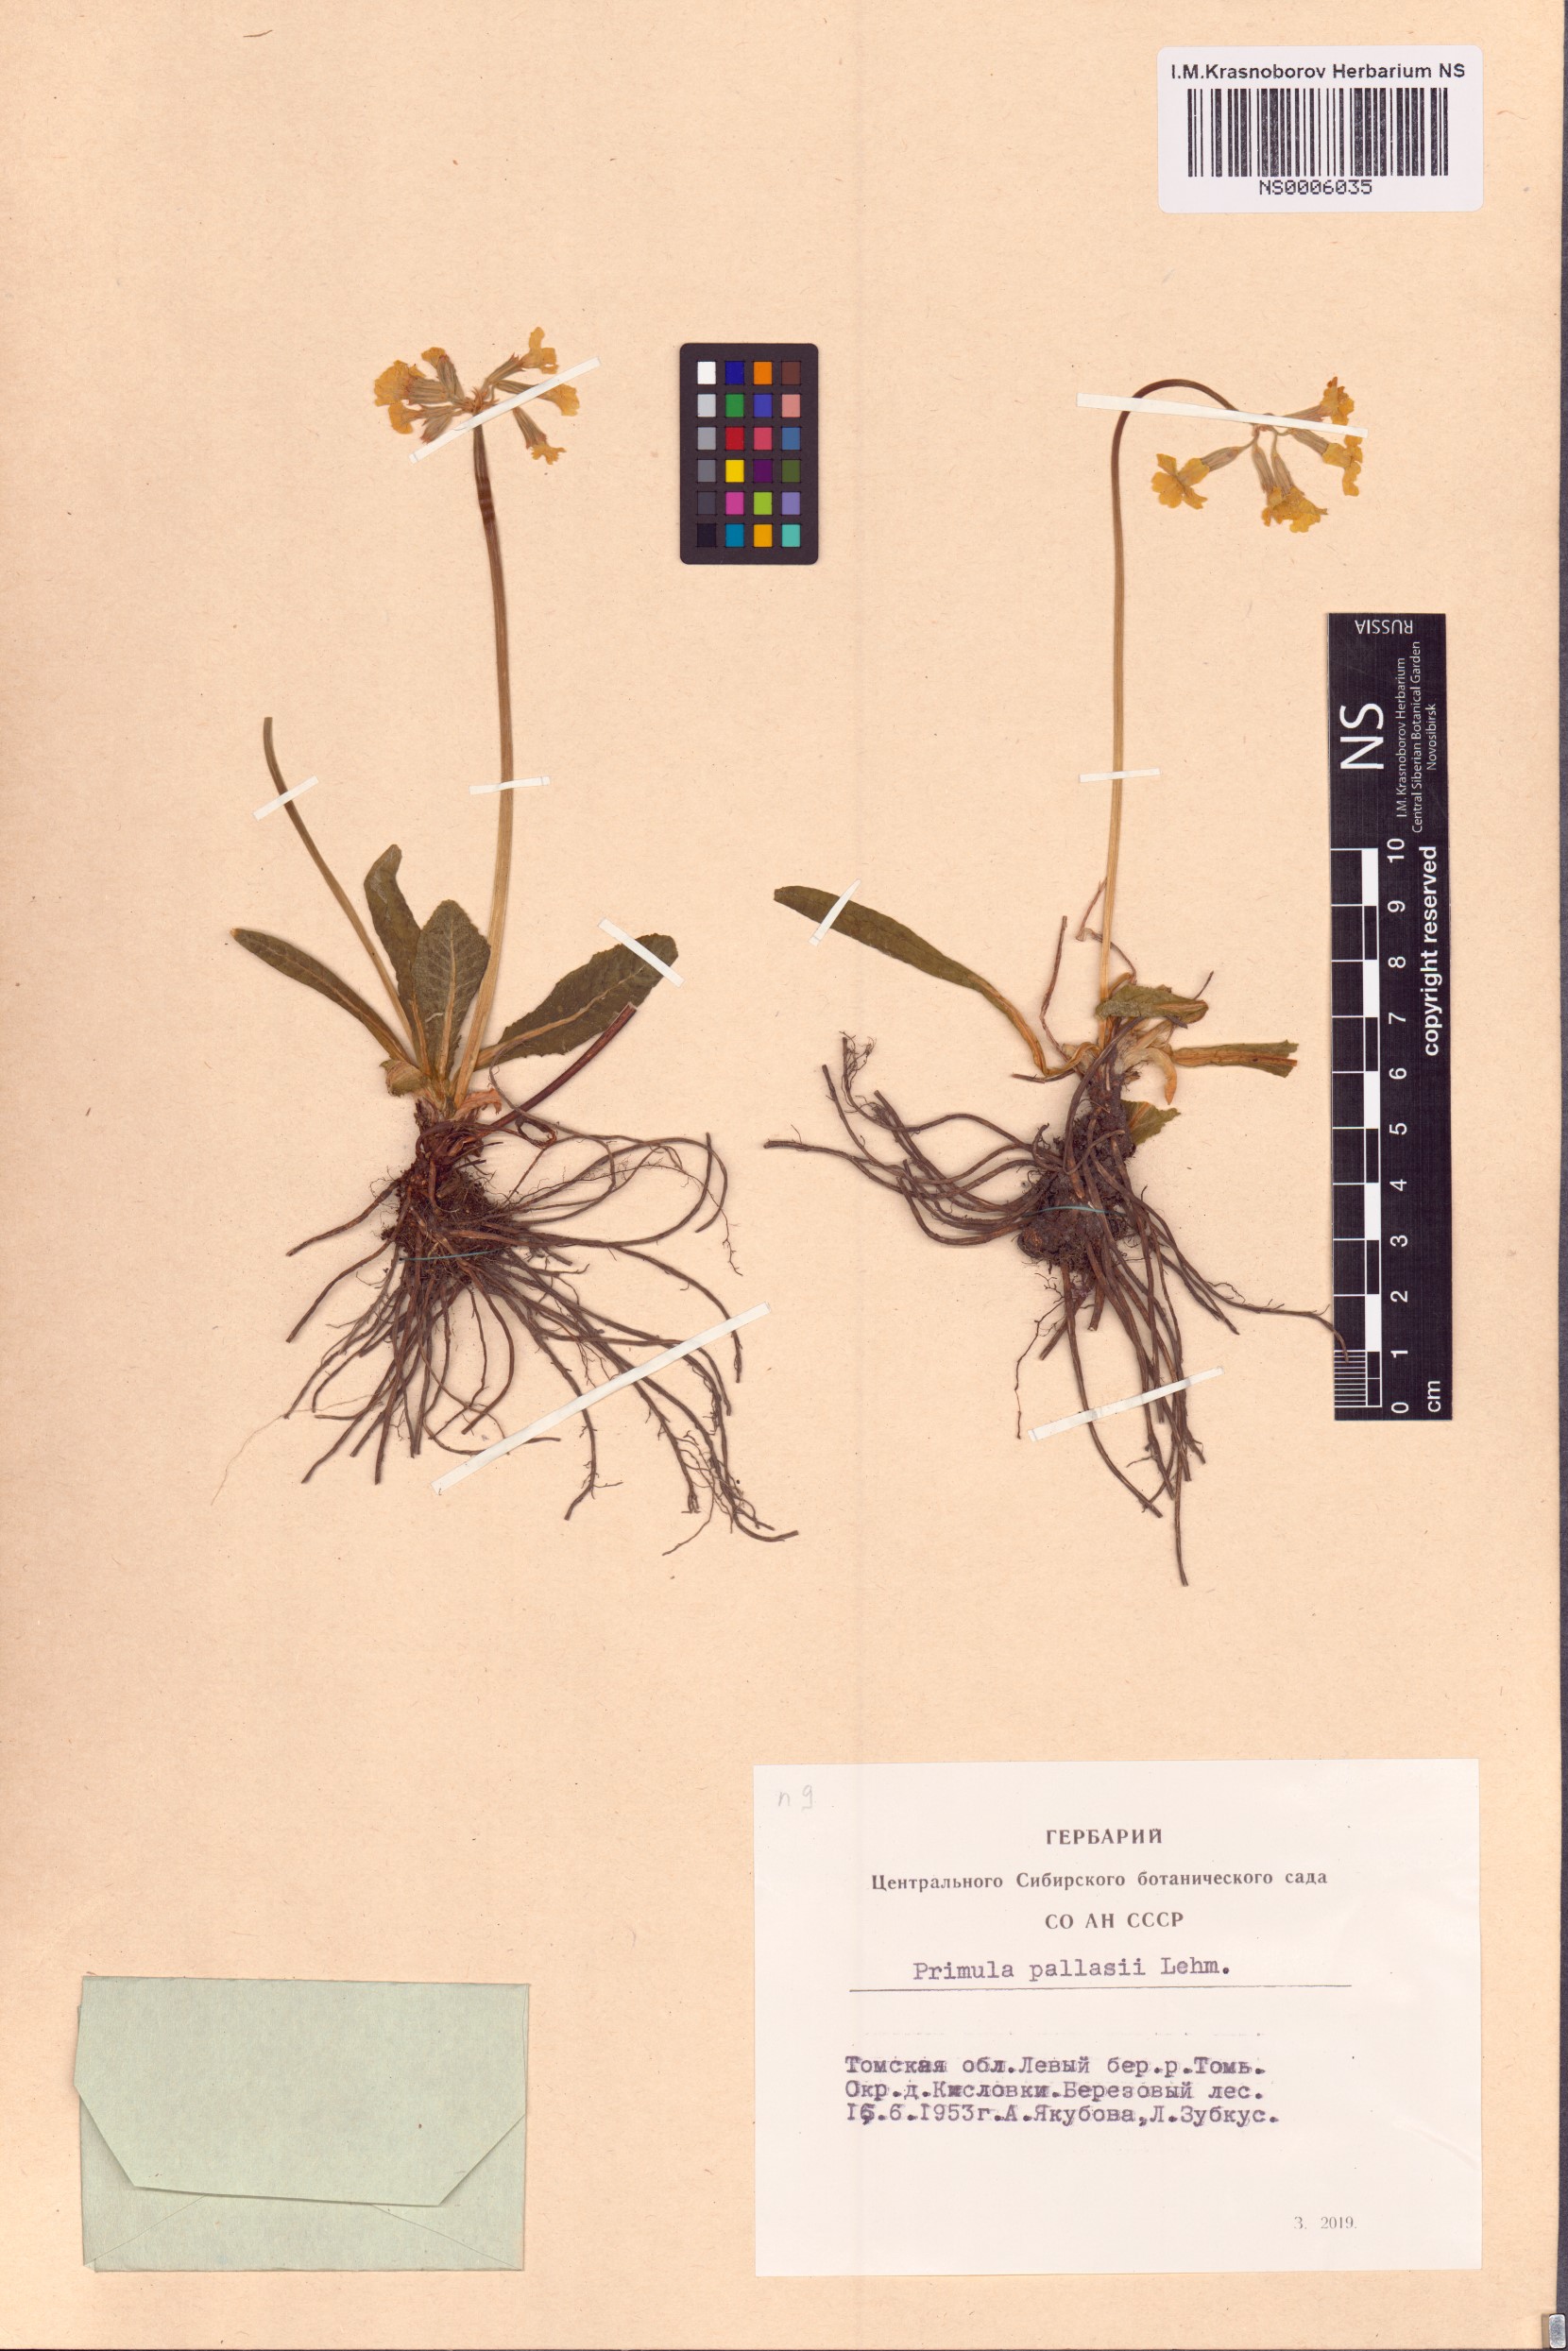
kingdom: Plantae
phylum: Tracheophyta
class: Magnoliopsida
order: Ericales
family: Primulaceae
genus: Primula
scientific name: Primula elatior
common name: Oxlip
